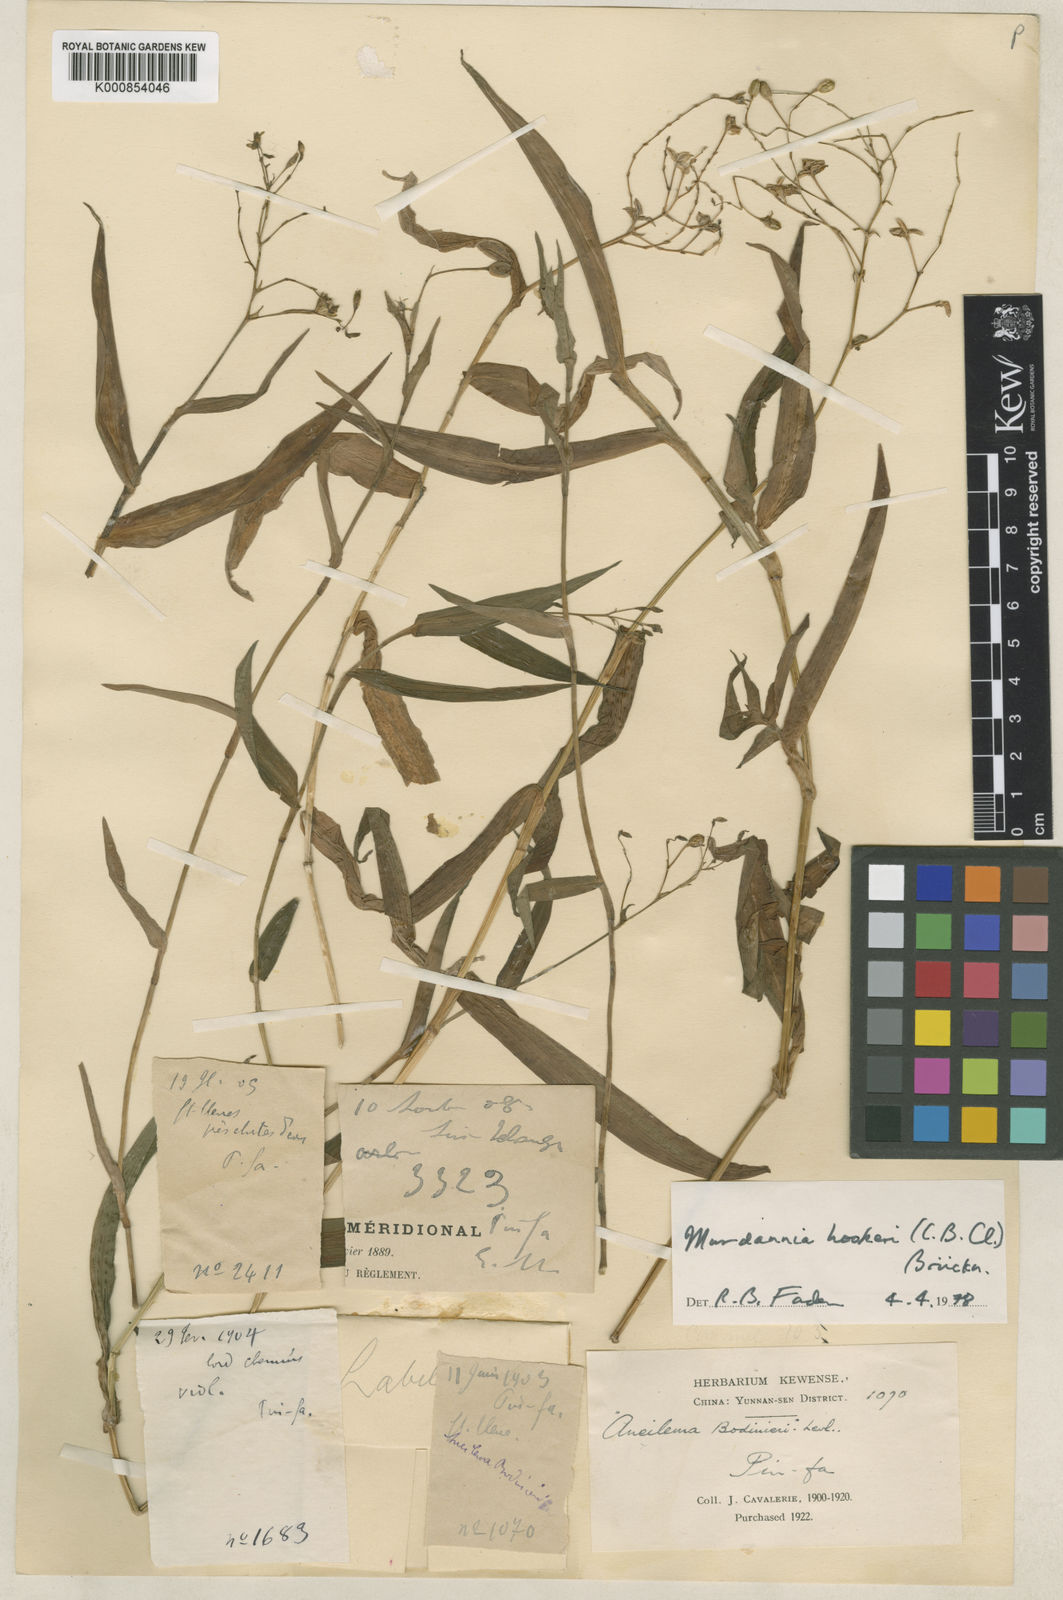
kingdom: Plantae
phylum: Tracheophyta
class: Liliopsida
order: Commelinales
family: Commelinaceae
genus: Murdannia
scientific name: Murdannia
